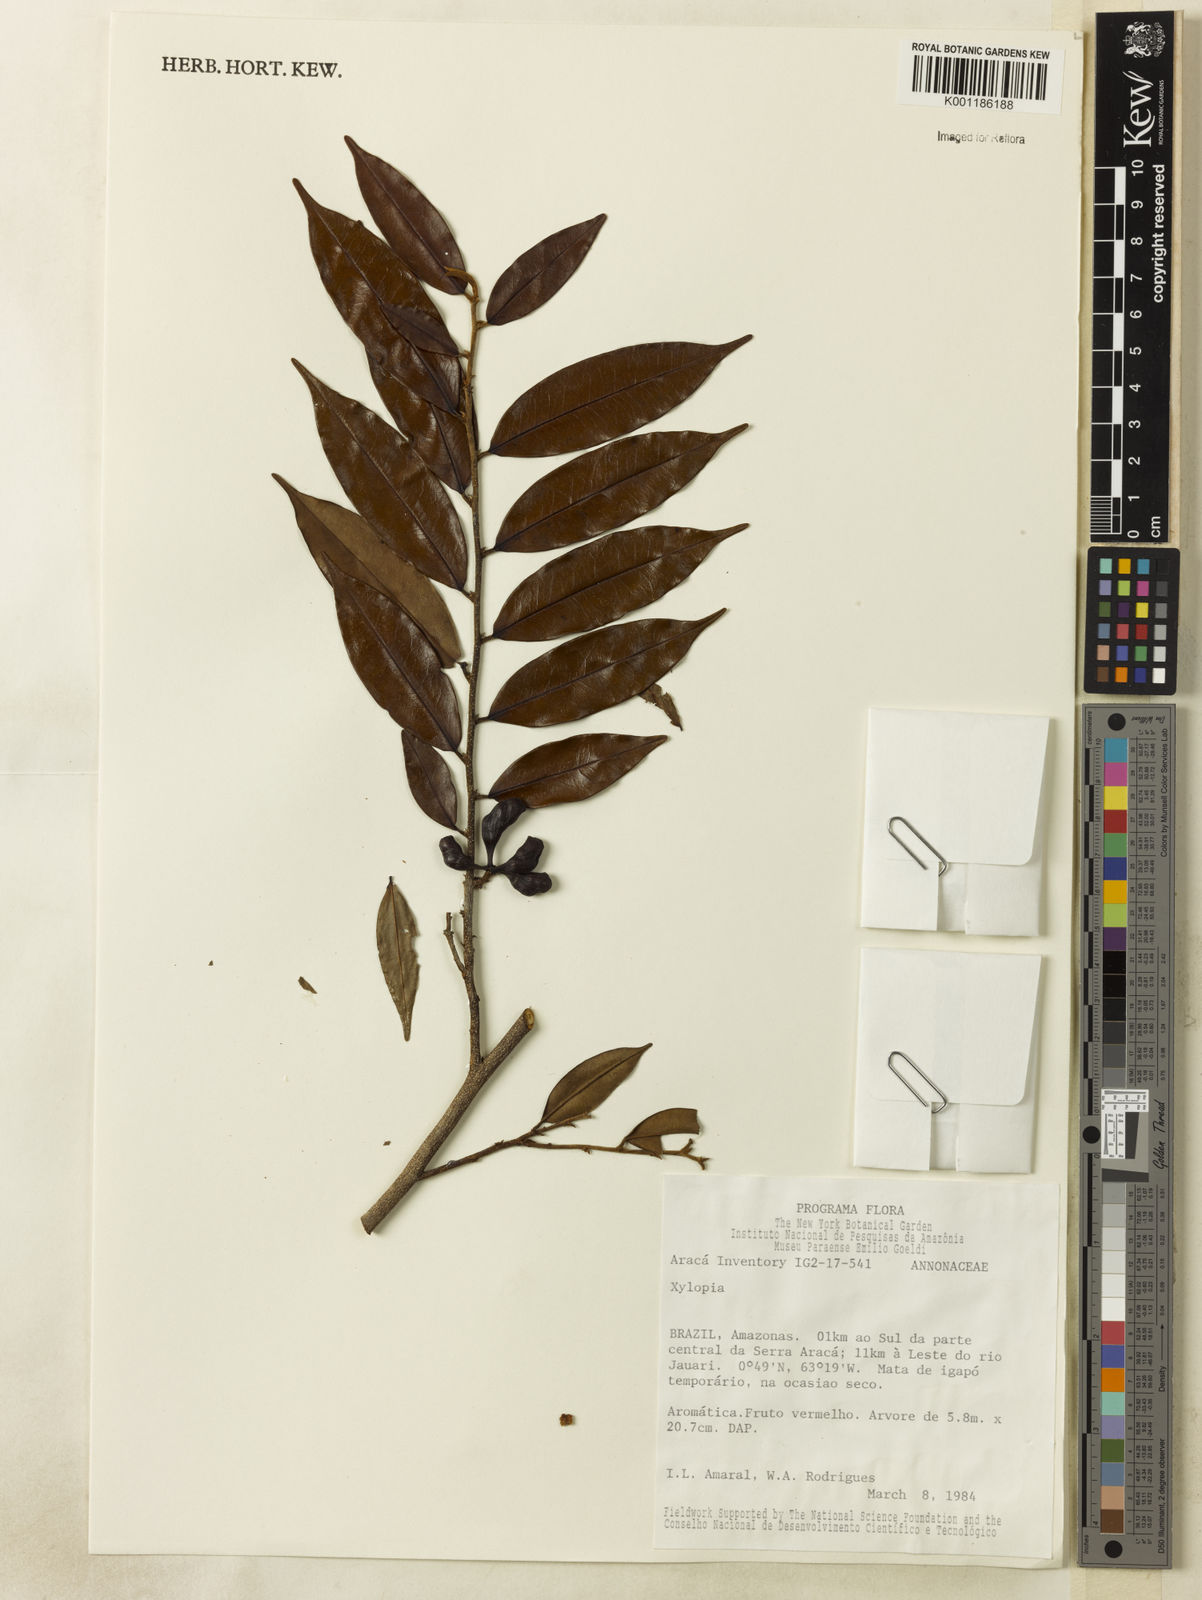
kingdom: Plantae
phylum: Tracheophyta
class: Magnoliopsida
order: Magnoliales
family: Annonaceae
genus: Xylopia
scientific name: Xylopia
